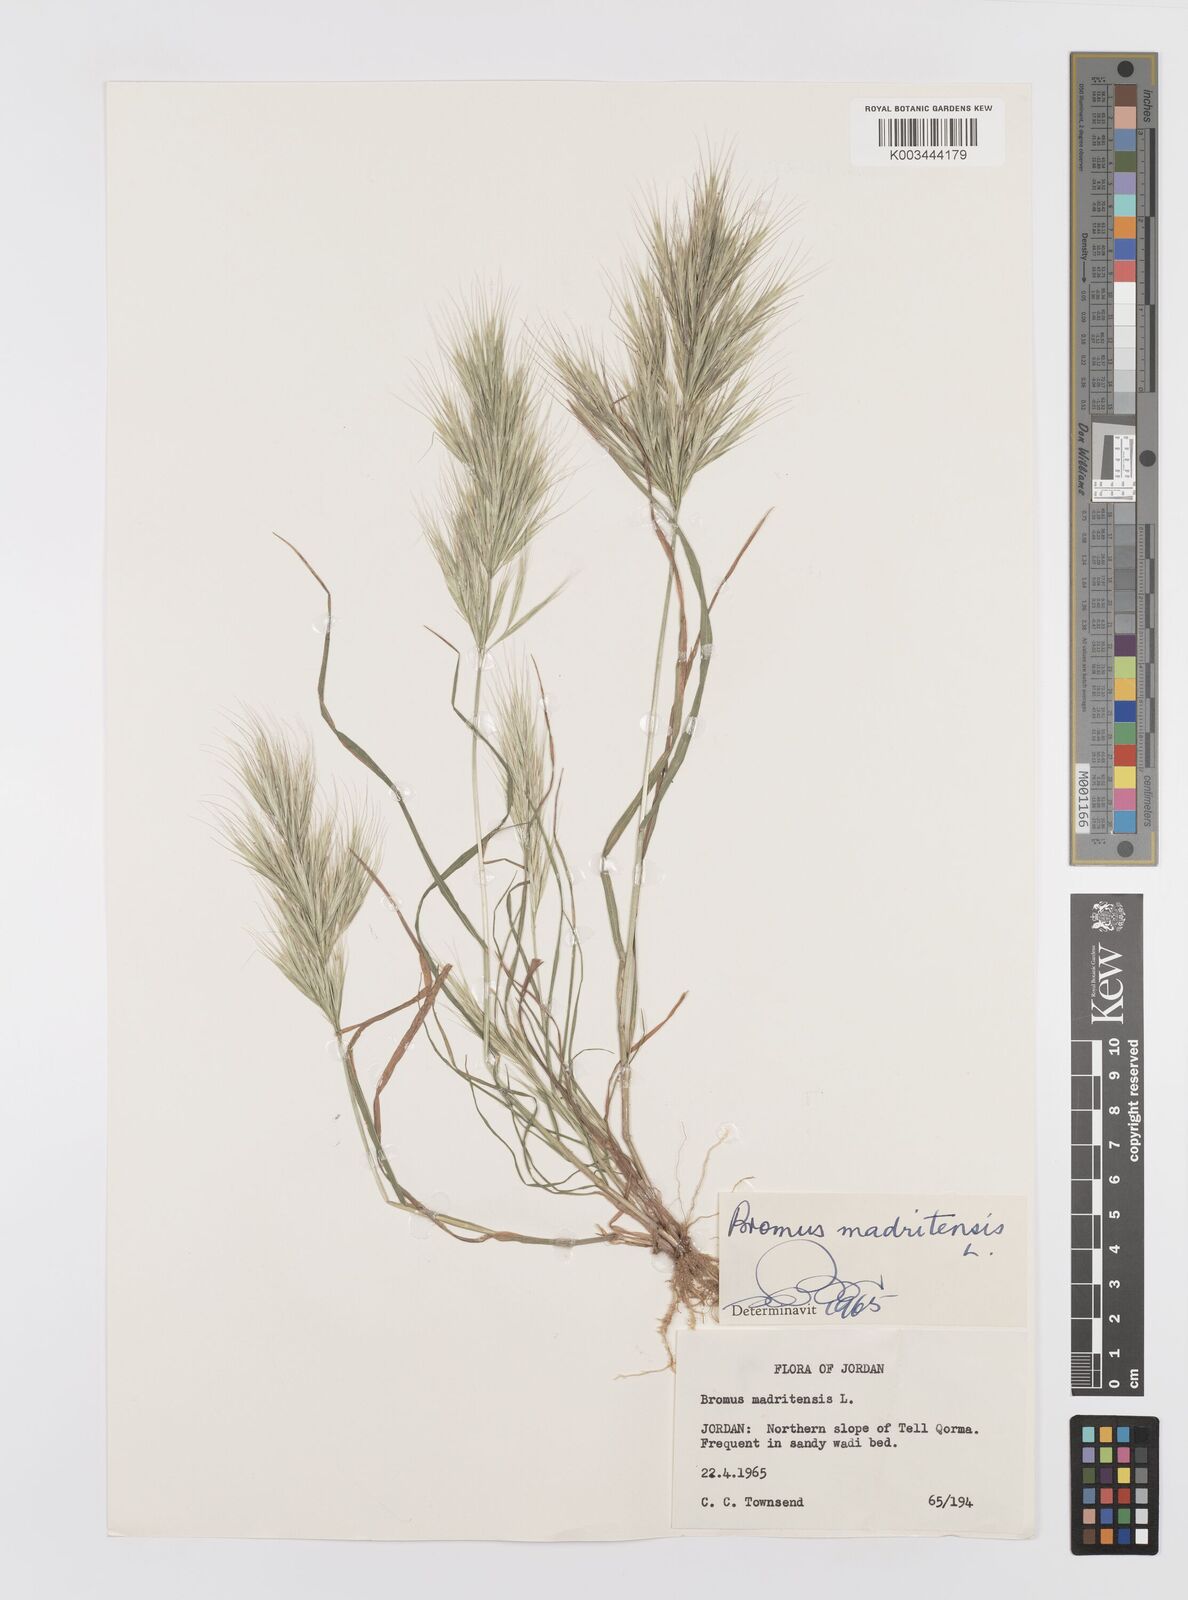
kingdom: Plantae
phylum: Tracheophyta
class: Liliopsida
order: Poales
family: Poaceae
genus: Bromus
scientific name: Bromus madritensis
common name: Compact brome
